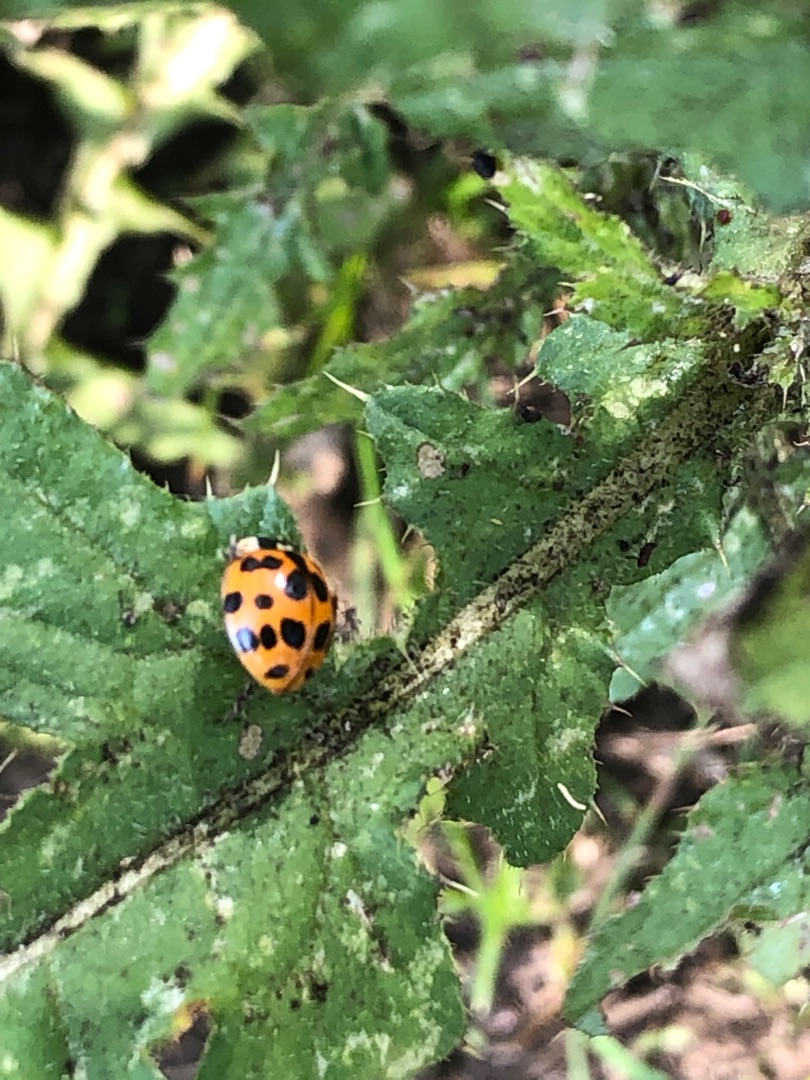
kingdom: Animalia
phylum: Arthropoda
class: Insecta
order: Coleoptera
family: Coccinellidae
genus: Harmonia
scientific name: Harmonia axyridis
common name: Harlekinmariehøne
